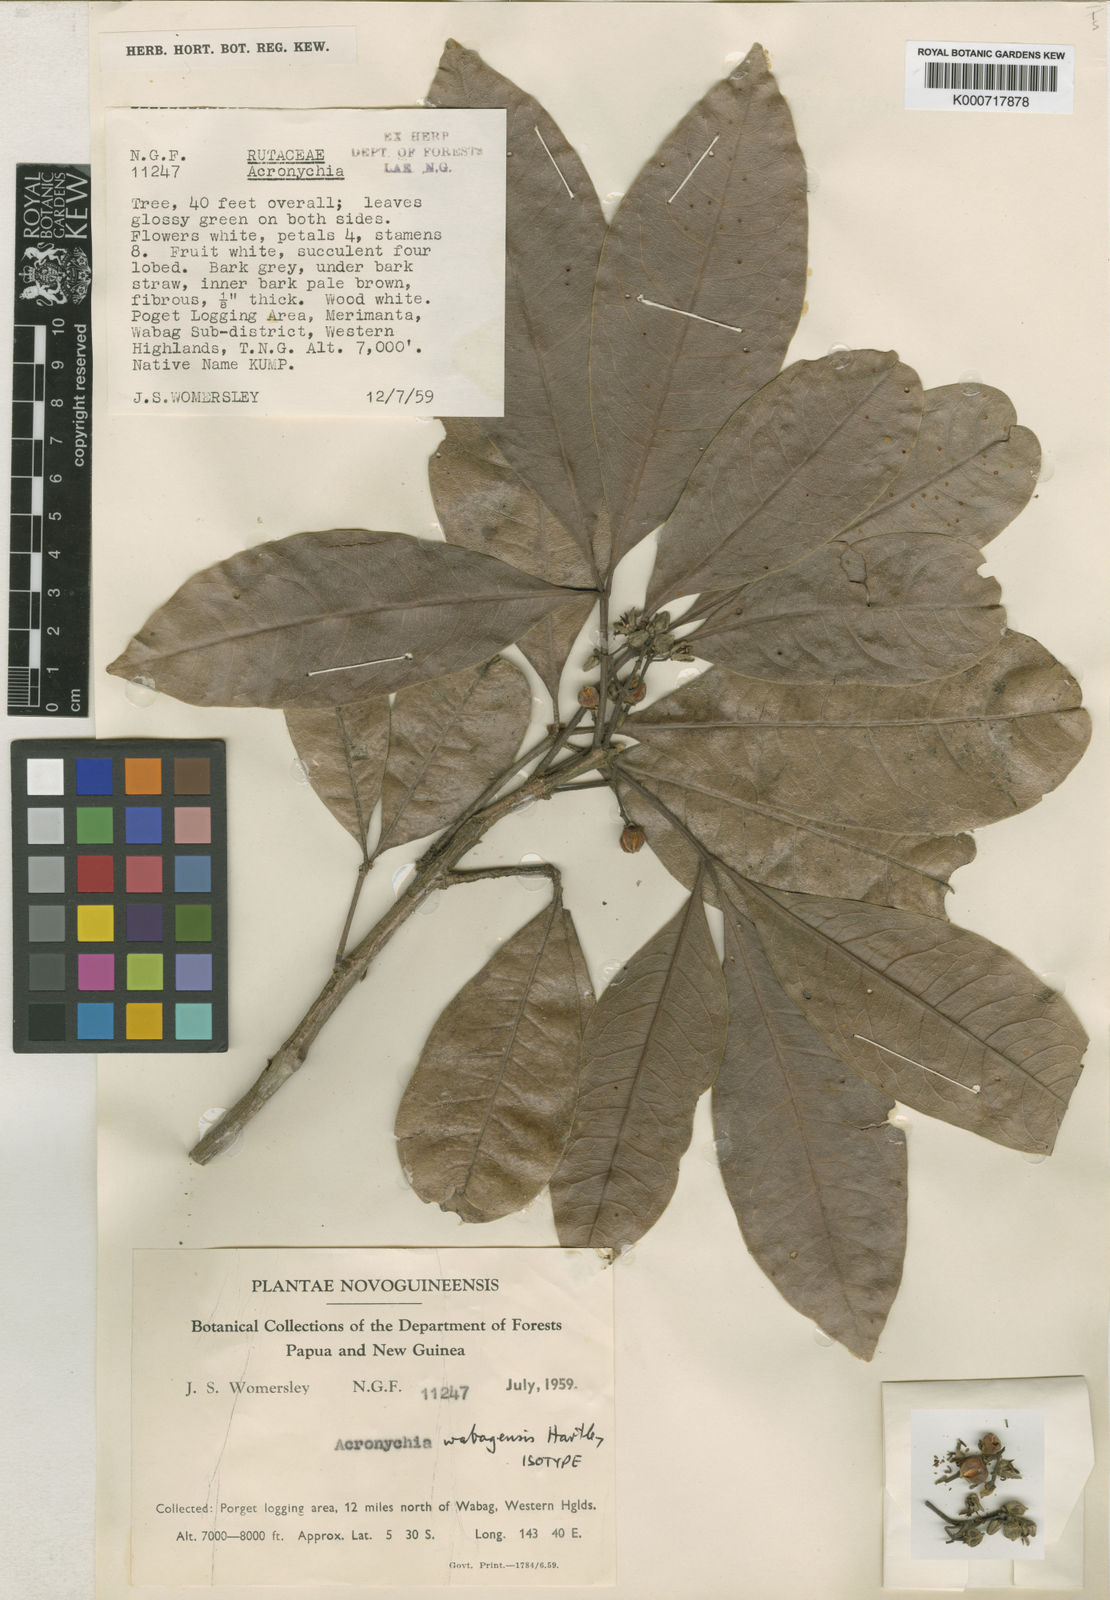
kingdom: Plantae
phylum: Tracheophyta
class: Magnoliopsida
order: Sapindales
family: Rutaceae
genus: Acronychia
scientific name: Acronychia wabagensis
